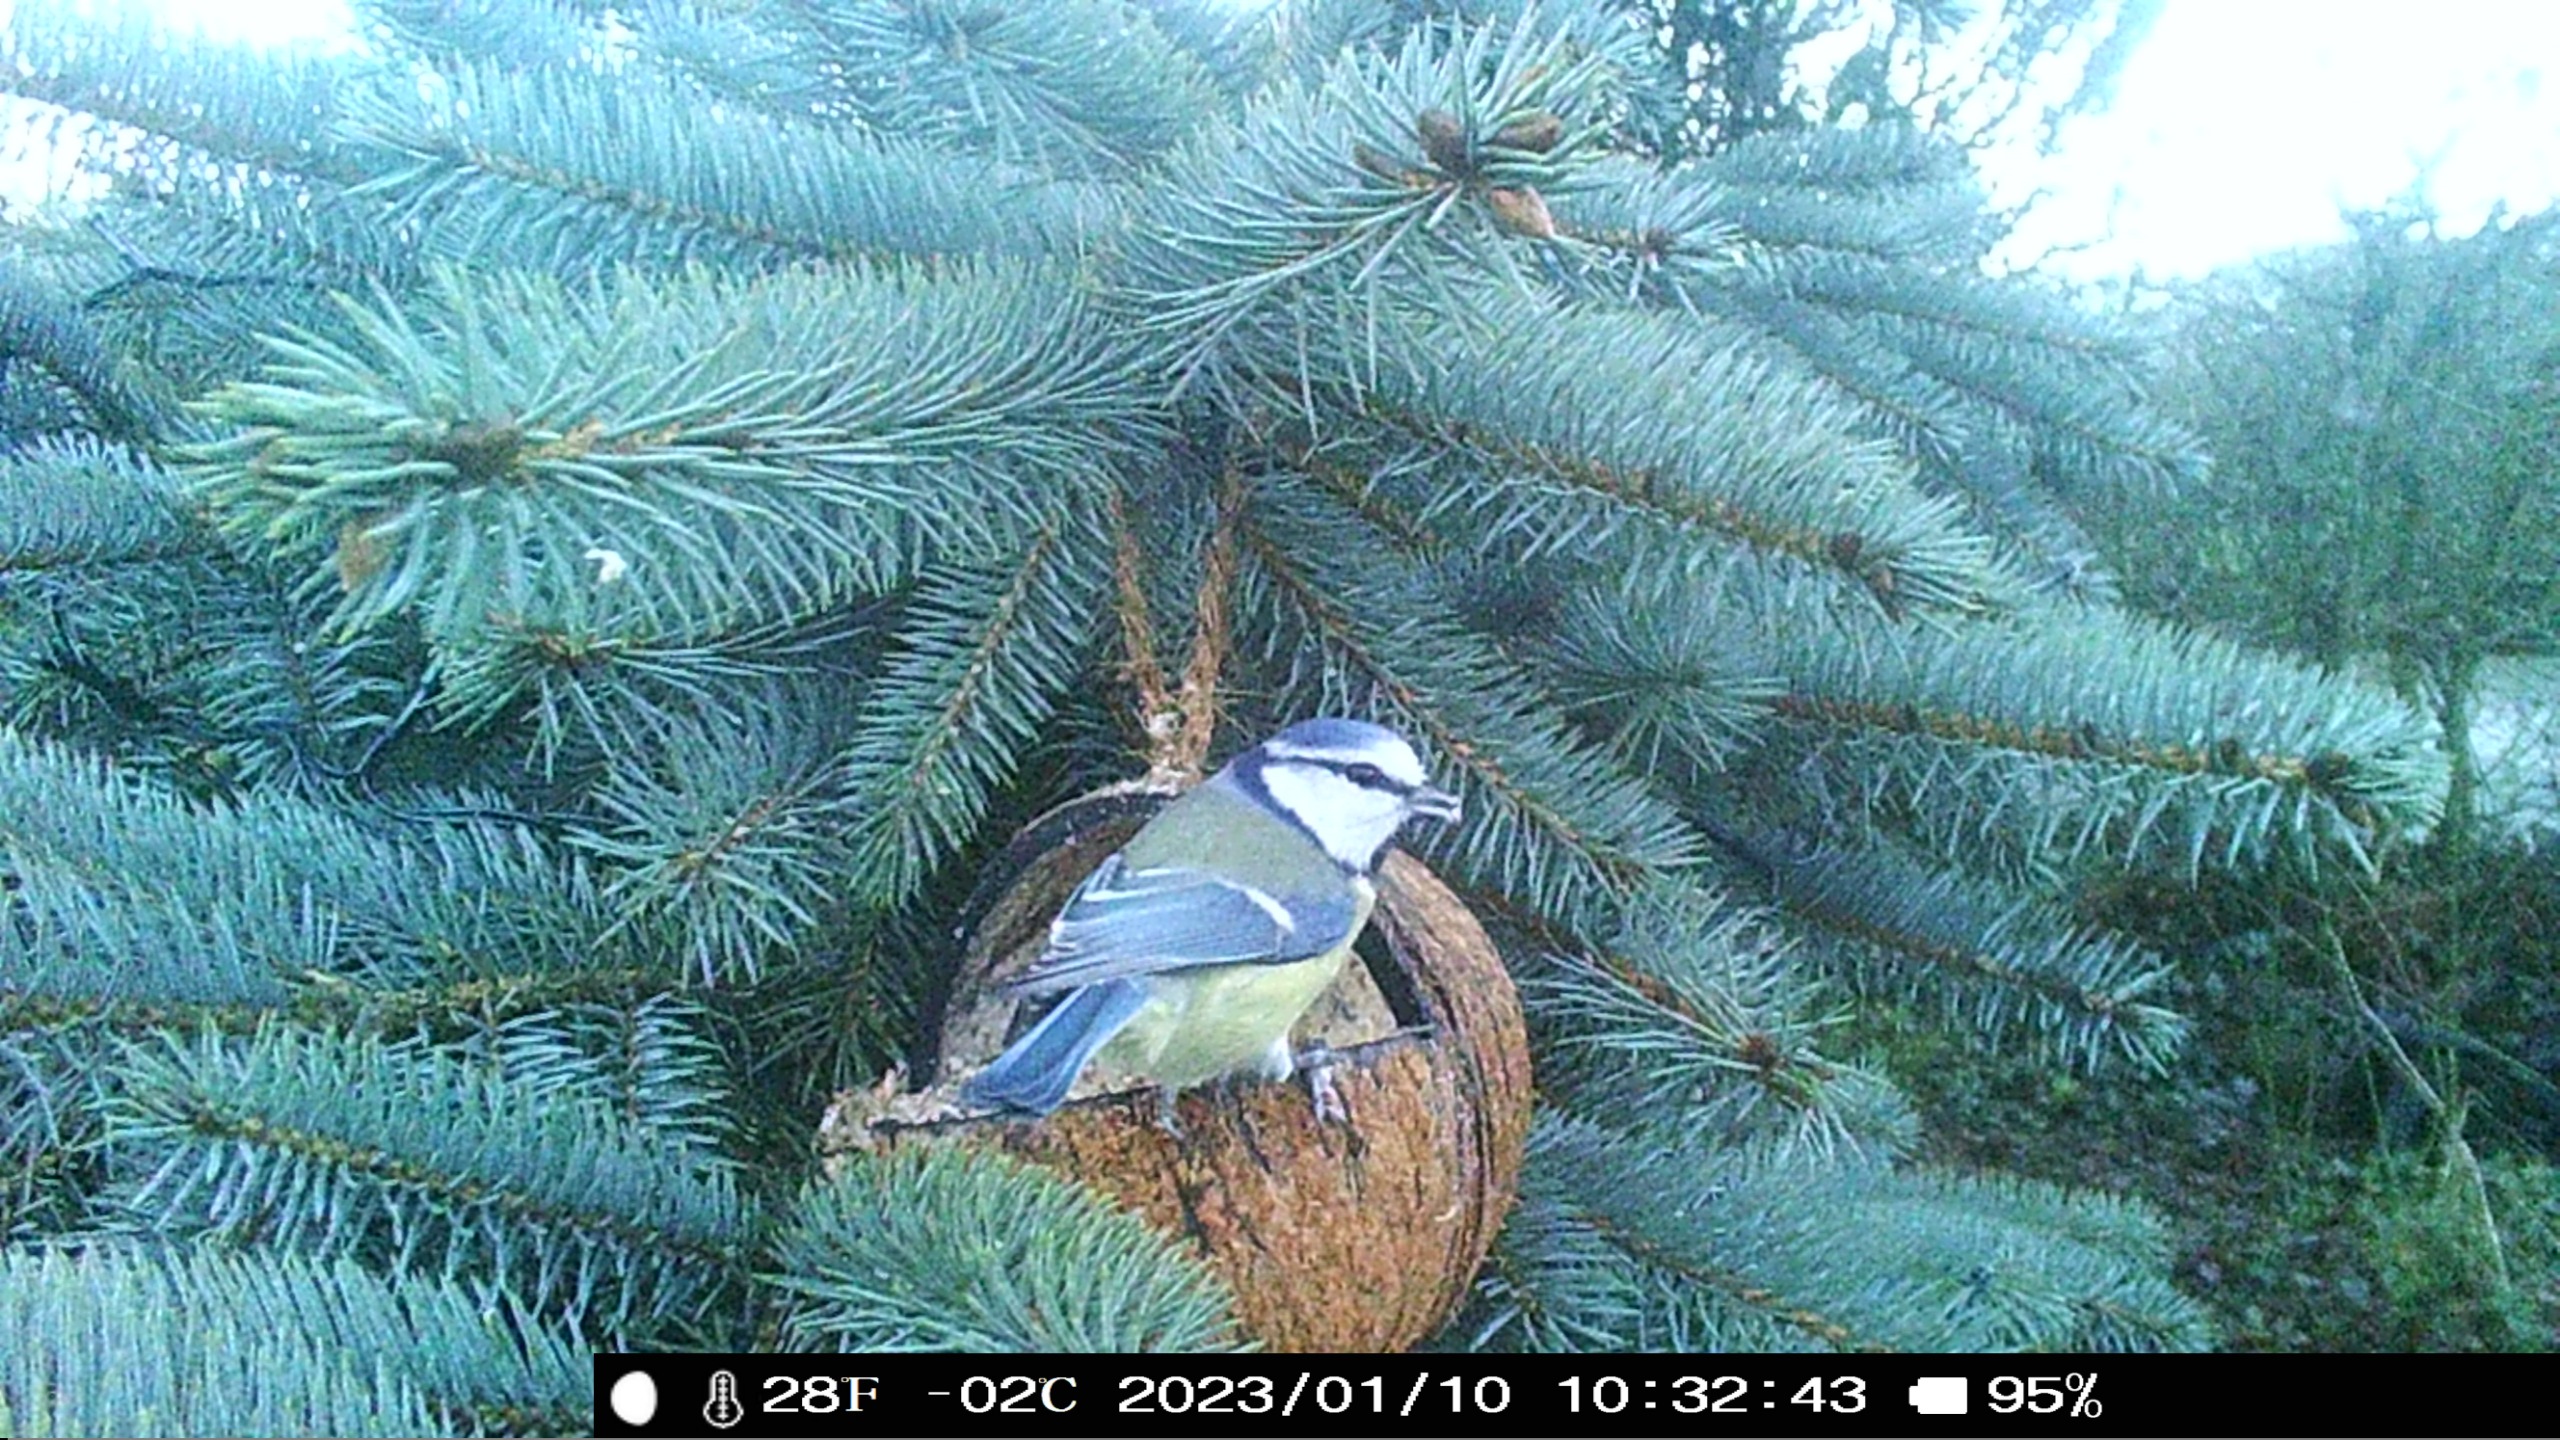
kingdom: Animalia
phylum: Chordata
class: Aves
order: Passeriformes
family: Paridae
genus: Cyanistes
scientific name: Cyanistes caeruleus
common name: Blåmejse
